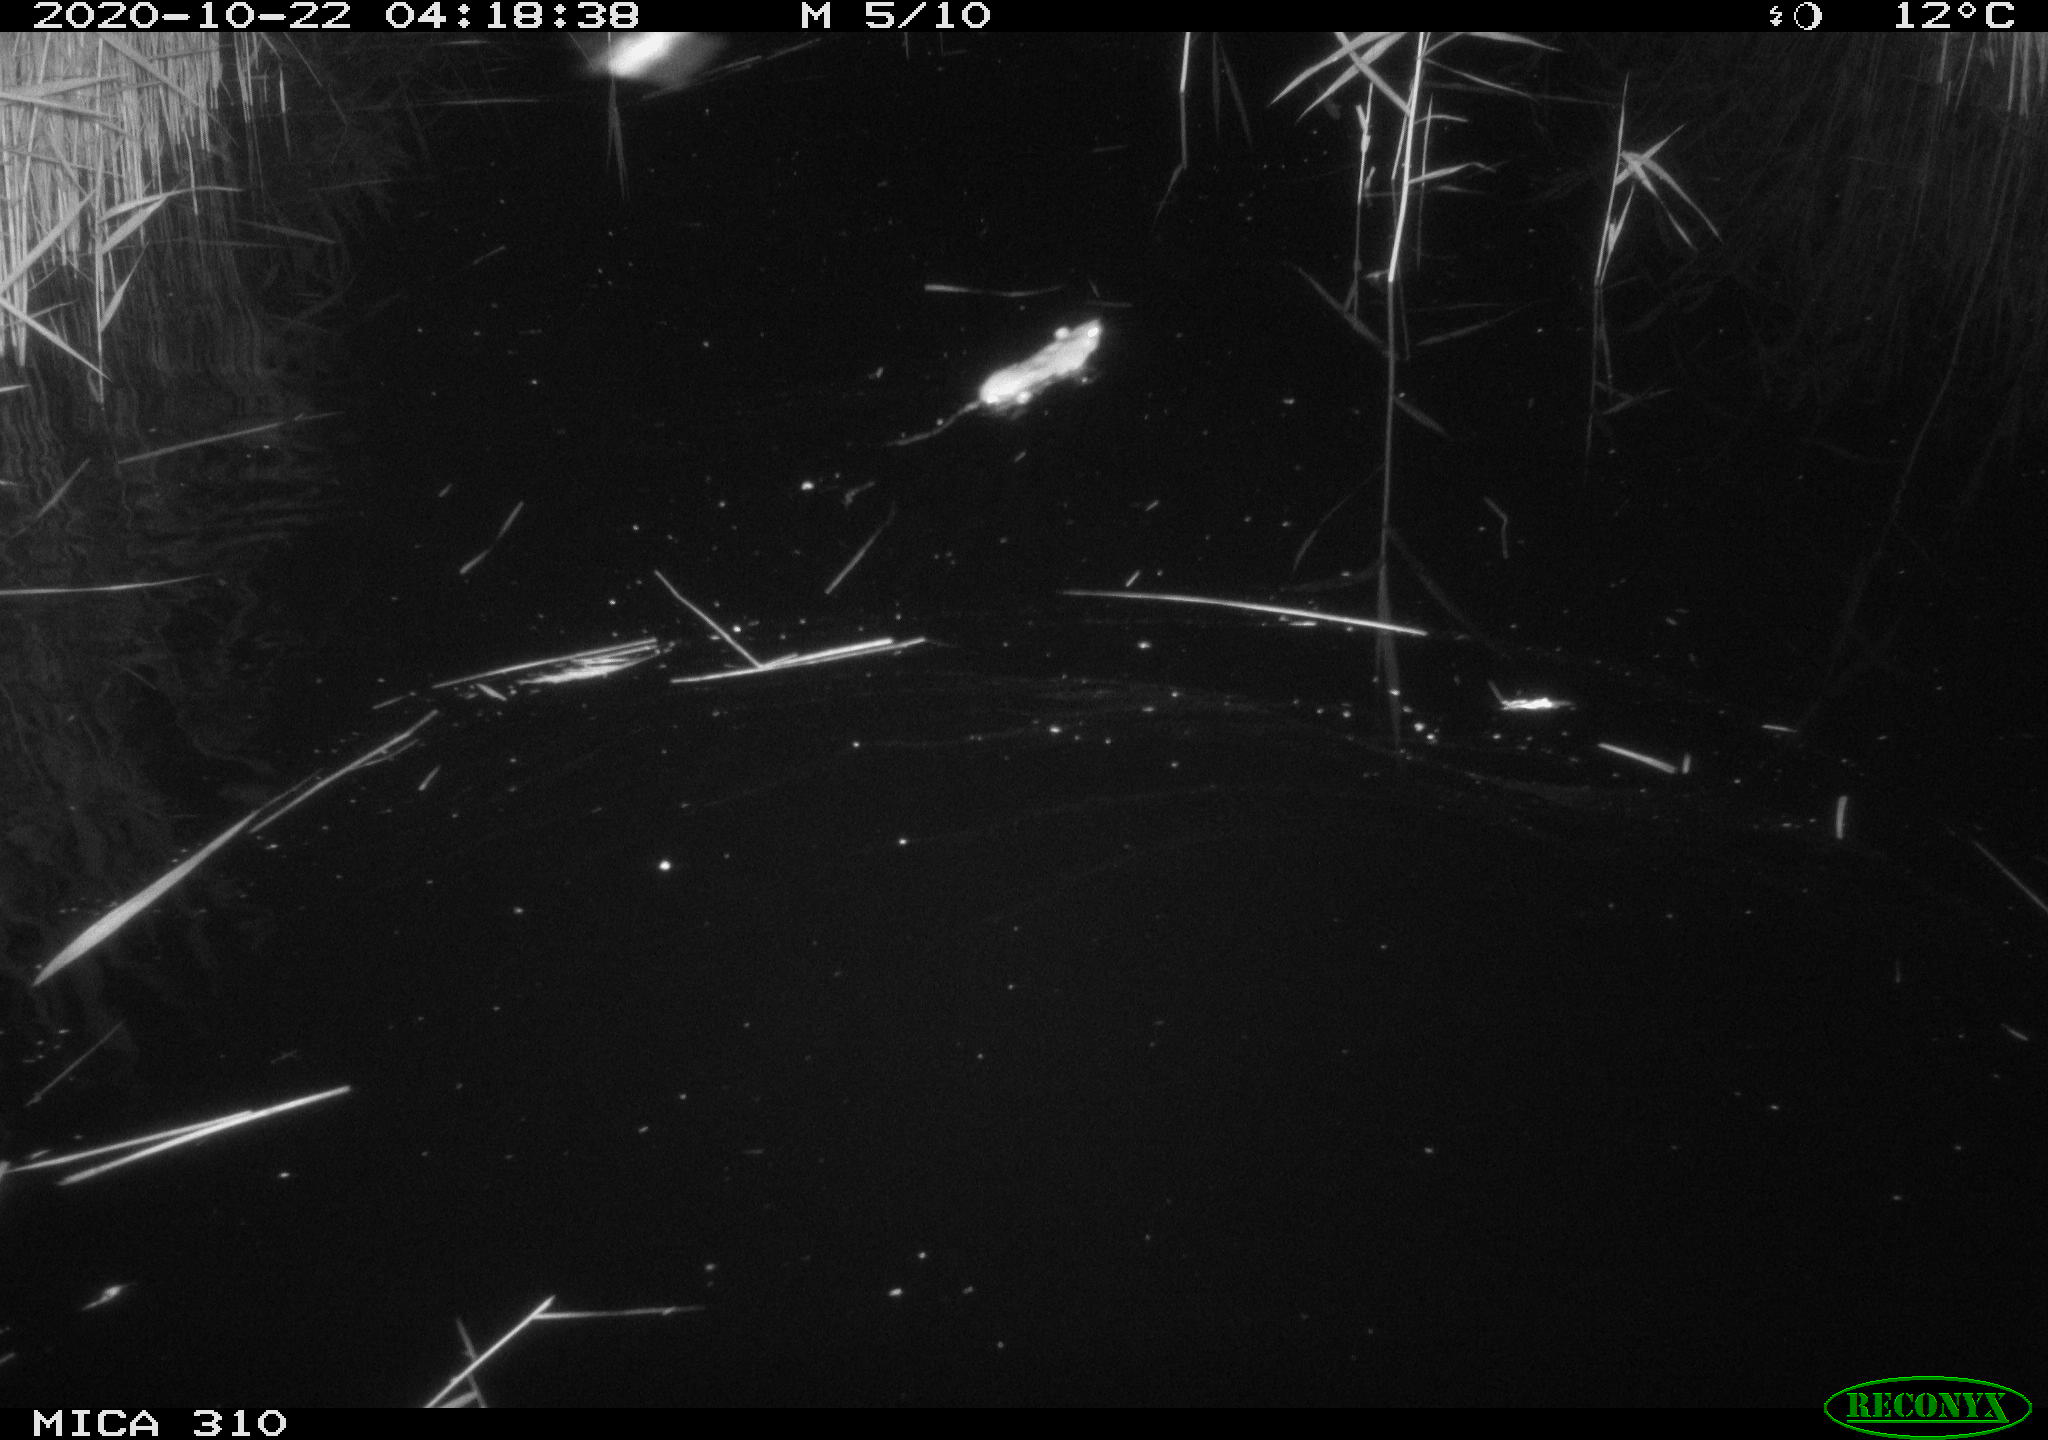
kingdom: Animalia
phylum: Chordata
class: Mammalia
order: Rodentia
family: Muridae
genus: Rattus
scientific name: Rattus norvegicus
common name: Brown rat
